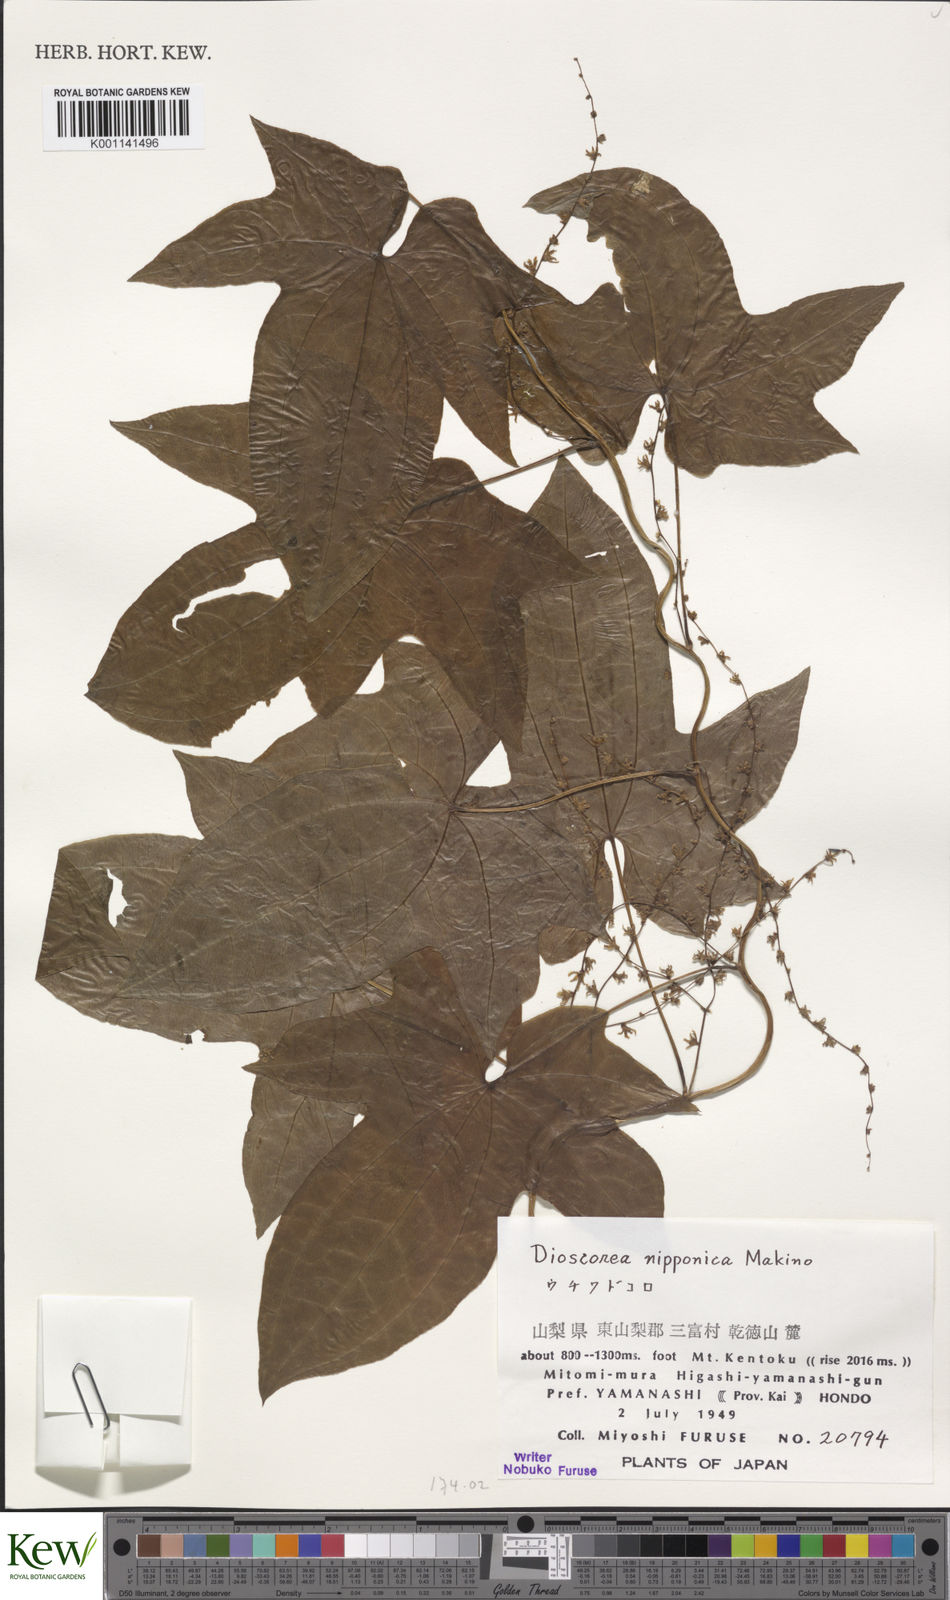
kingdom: Plantae
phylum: Tracheophyta
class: Liliopsida
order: Dioscoreales
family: Dioscoreaceae
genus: Dioscorea
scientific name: Dioscorea nipponica
